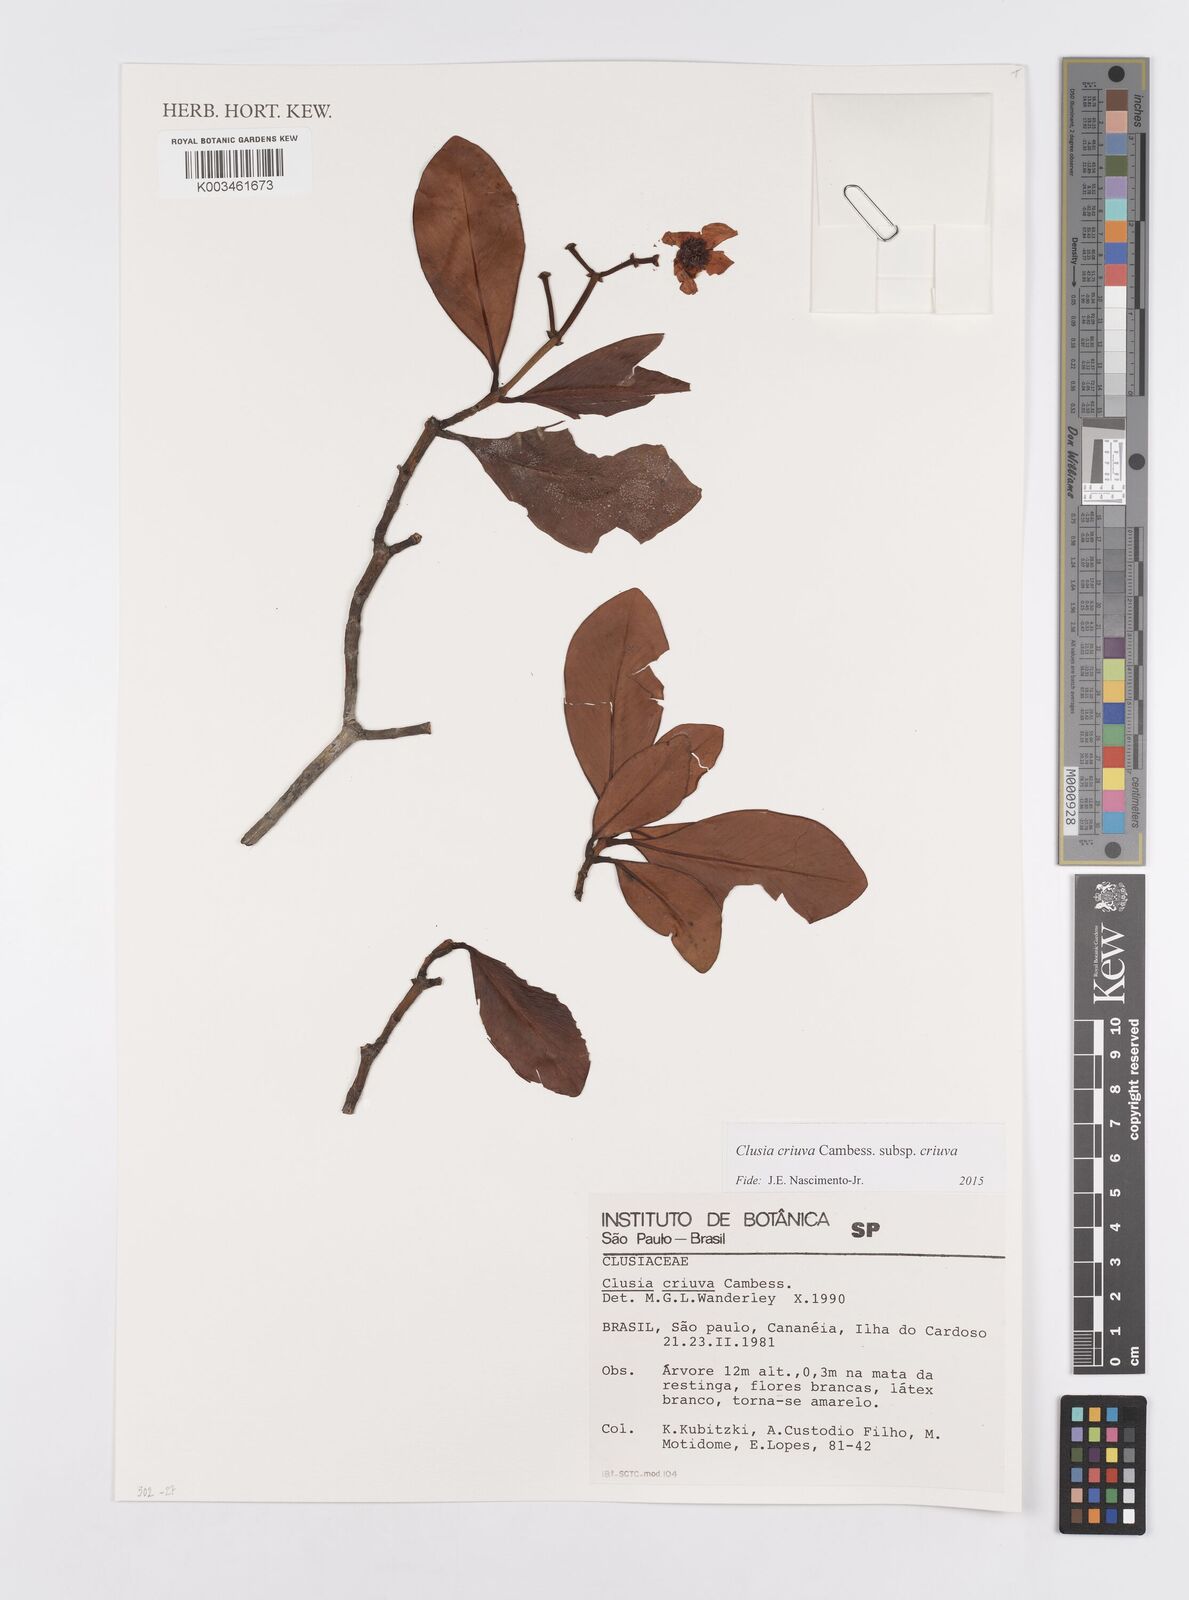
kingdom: Plantae
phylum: Tracheophyta
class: Magnoliopsida
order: Malpighiales
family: Clusiaceae
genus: Clusia
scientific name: Clusia criuva
